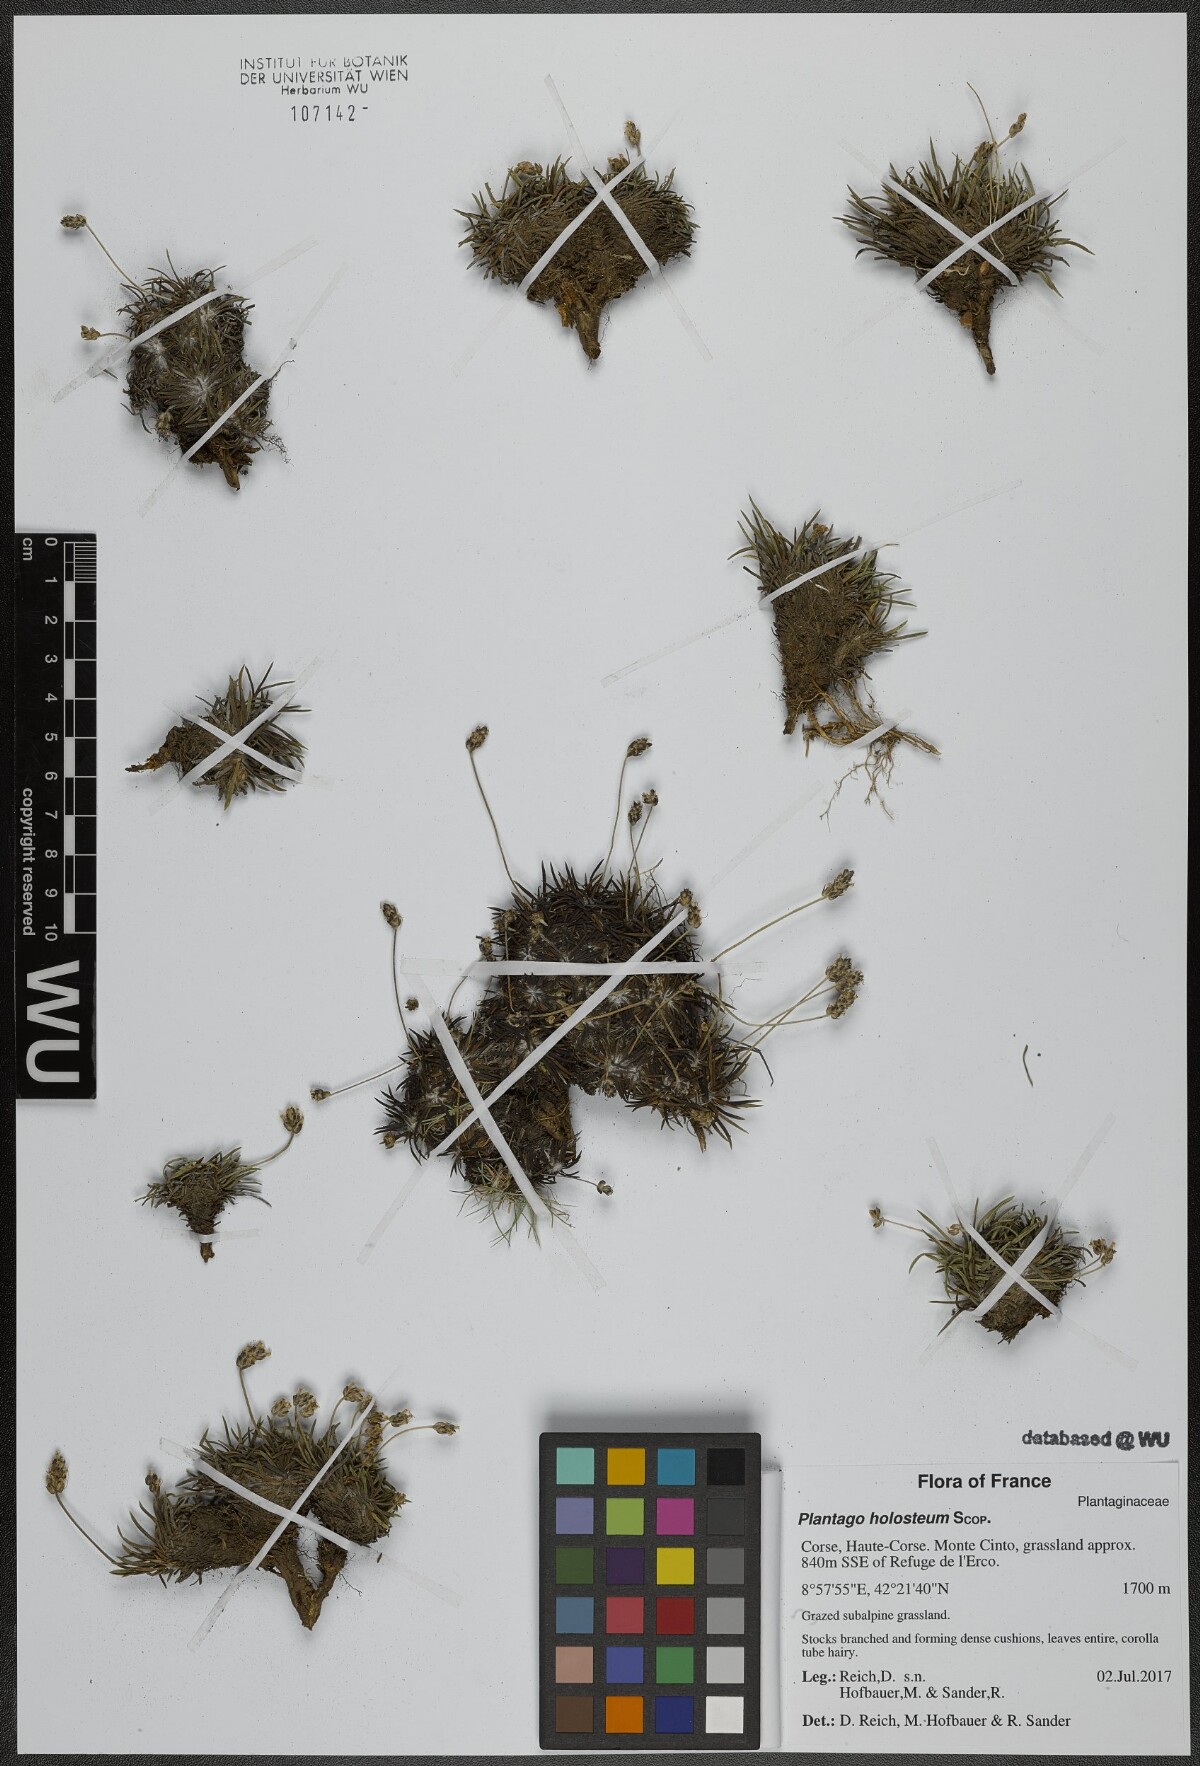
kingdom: Plantae
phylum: Tracheophyta
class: Magnoliopsida
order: Lamiales
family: Plantaginaceae
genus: Plantago
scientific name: Plantago subulata
